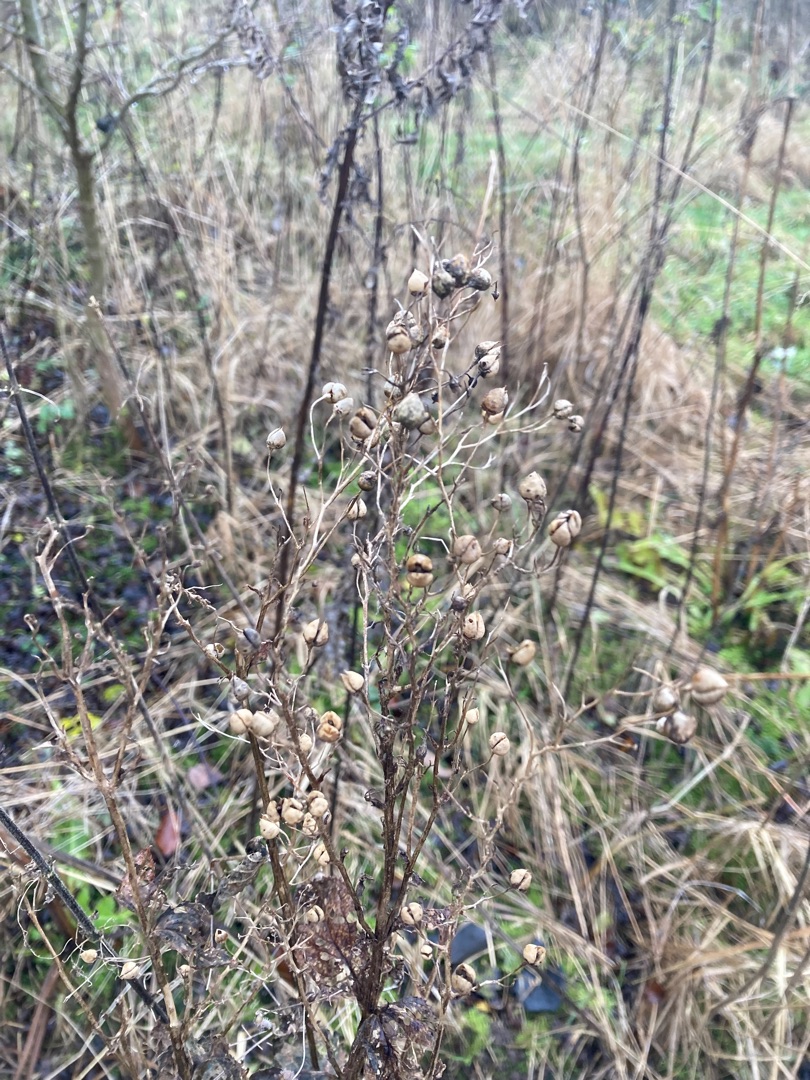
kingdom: Plantae
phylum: Tracheophyta
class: Magnoliopsida
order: Lamiales
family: Scrophulariaceae
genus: Scrophularia
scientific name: Scrophularia nodosa
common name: Knoldet brunrod
